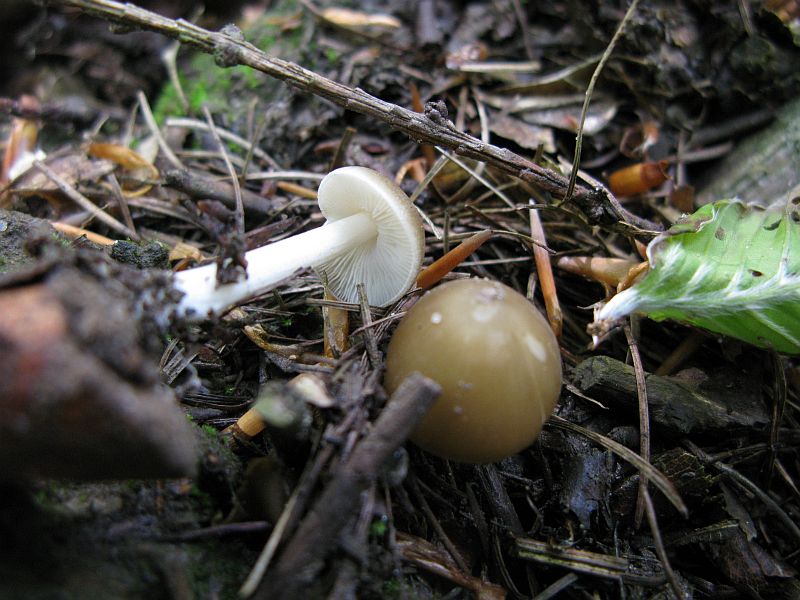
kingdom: Fungi
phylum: Basidiomycota
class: Agaricomycetes
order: Agaricales
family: Porotheleaceae
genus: Hydropodia
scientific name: Hydropodia subalpina
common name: vår-fnugfod
